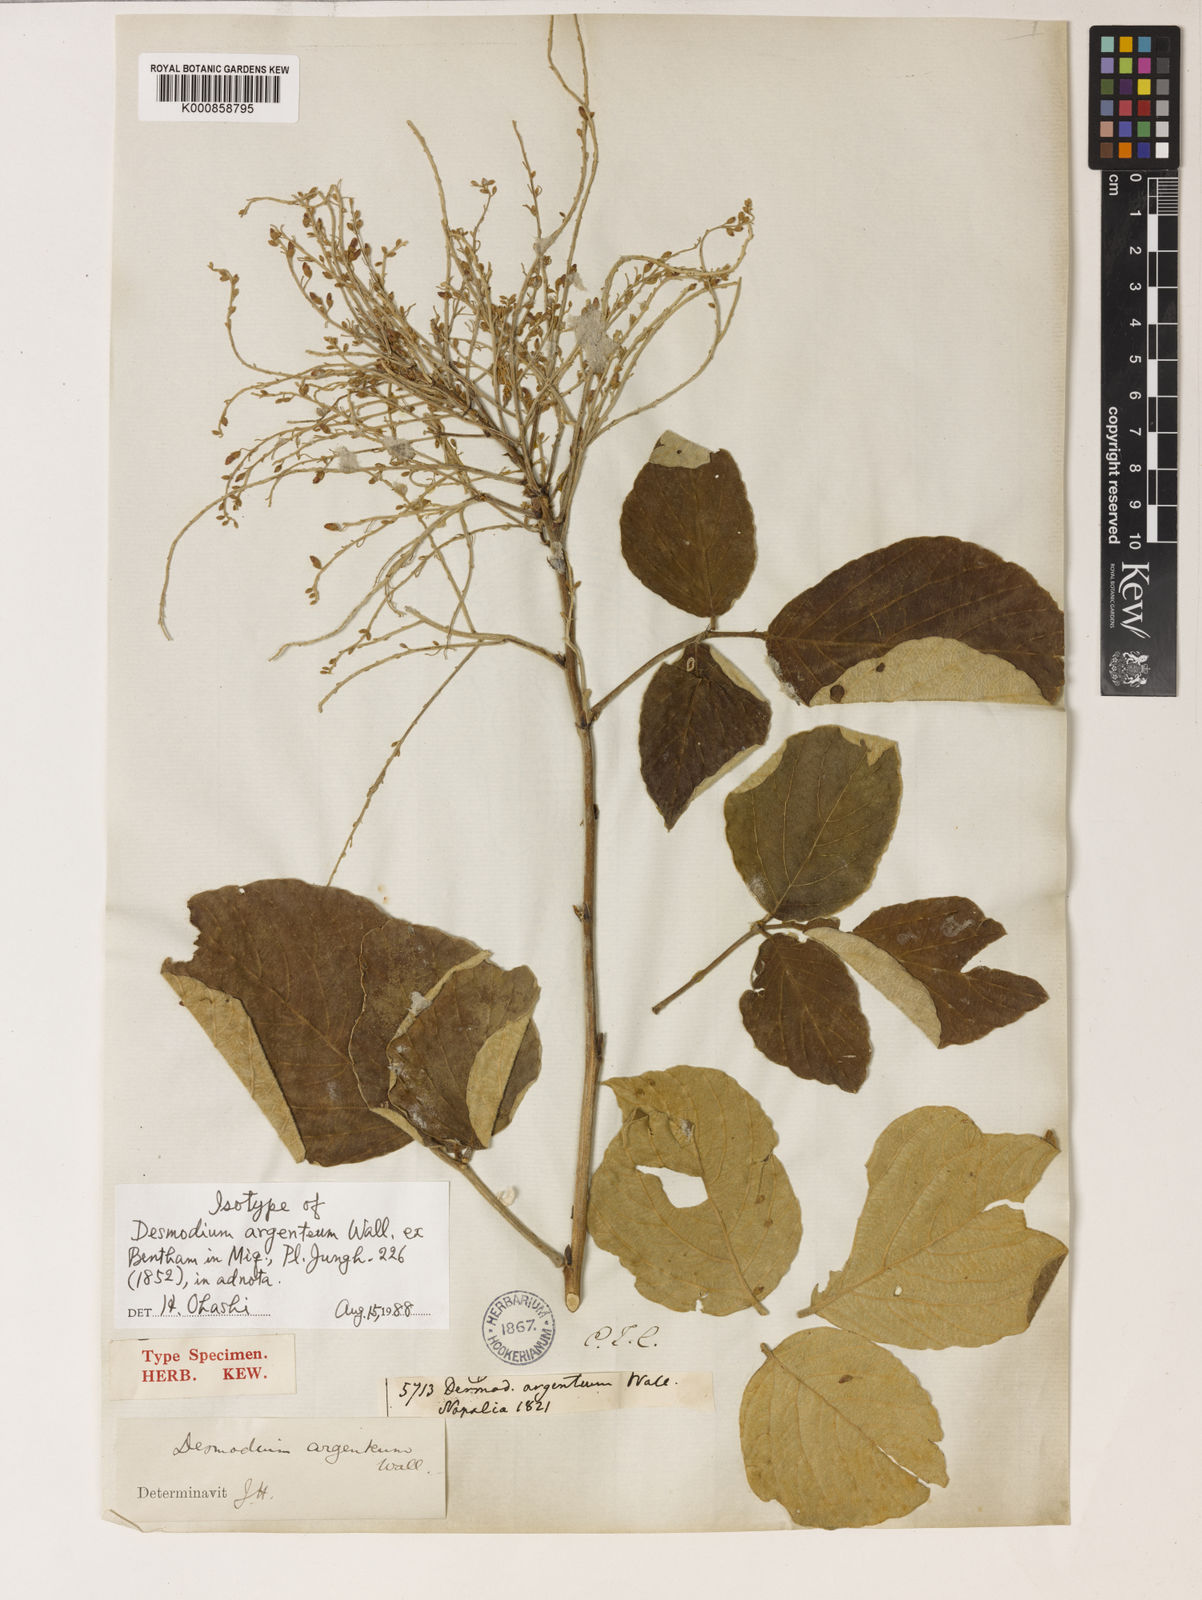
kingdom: Plantae
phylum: Tracheophyta
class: Magnoliopsida
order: Fabales
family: Fabaceae
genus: Sunhangia
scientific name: Sunhangia elegans
